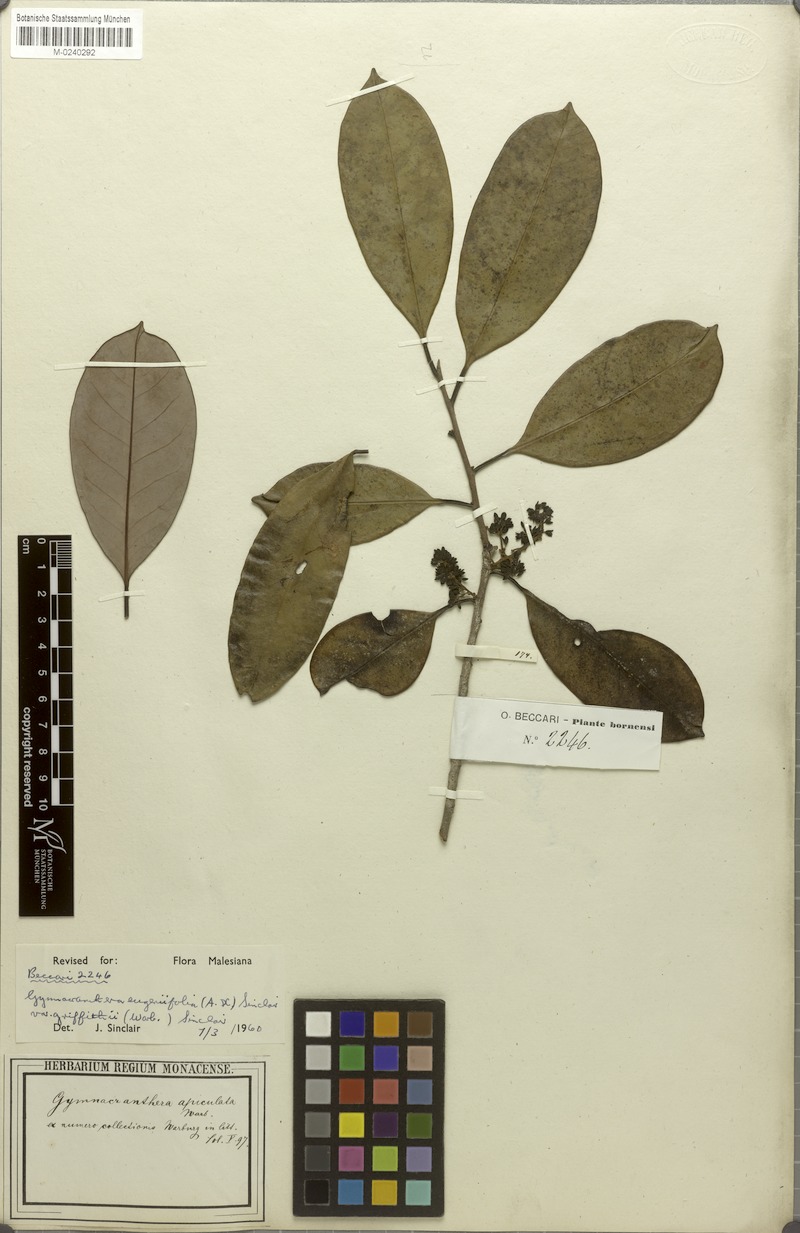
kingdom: Plantae
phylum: Tracheophyta
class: Magnoliopsida
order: Magnoliales
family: Myristicaceae
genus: Gymnacranthera
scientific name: Gymnacranthera farquhariana
